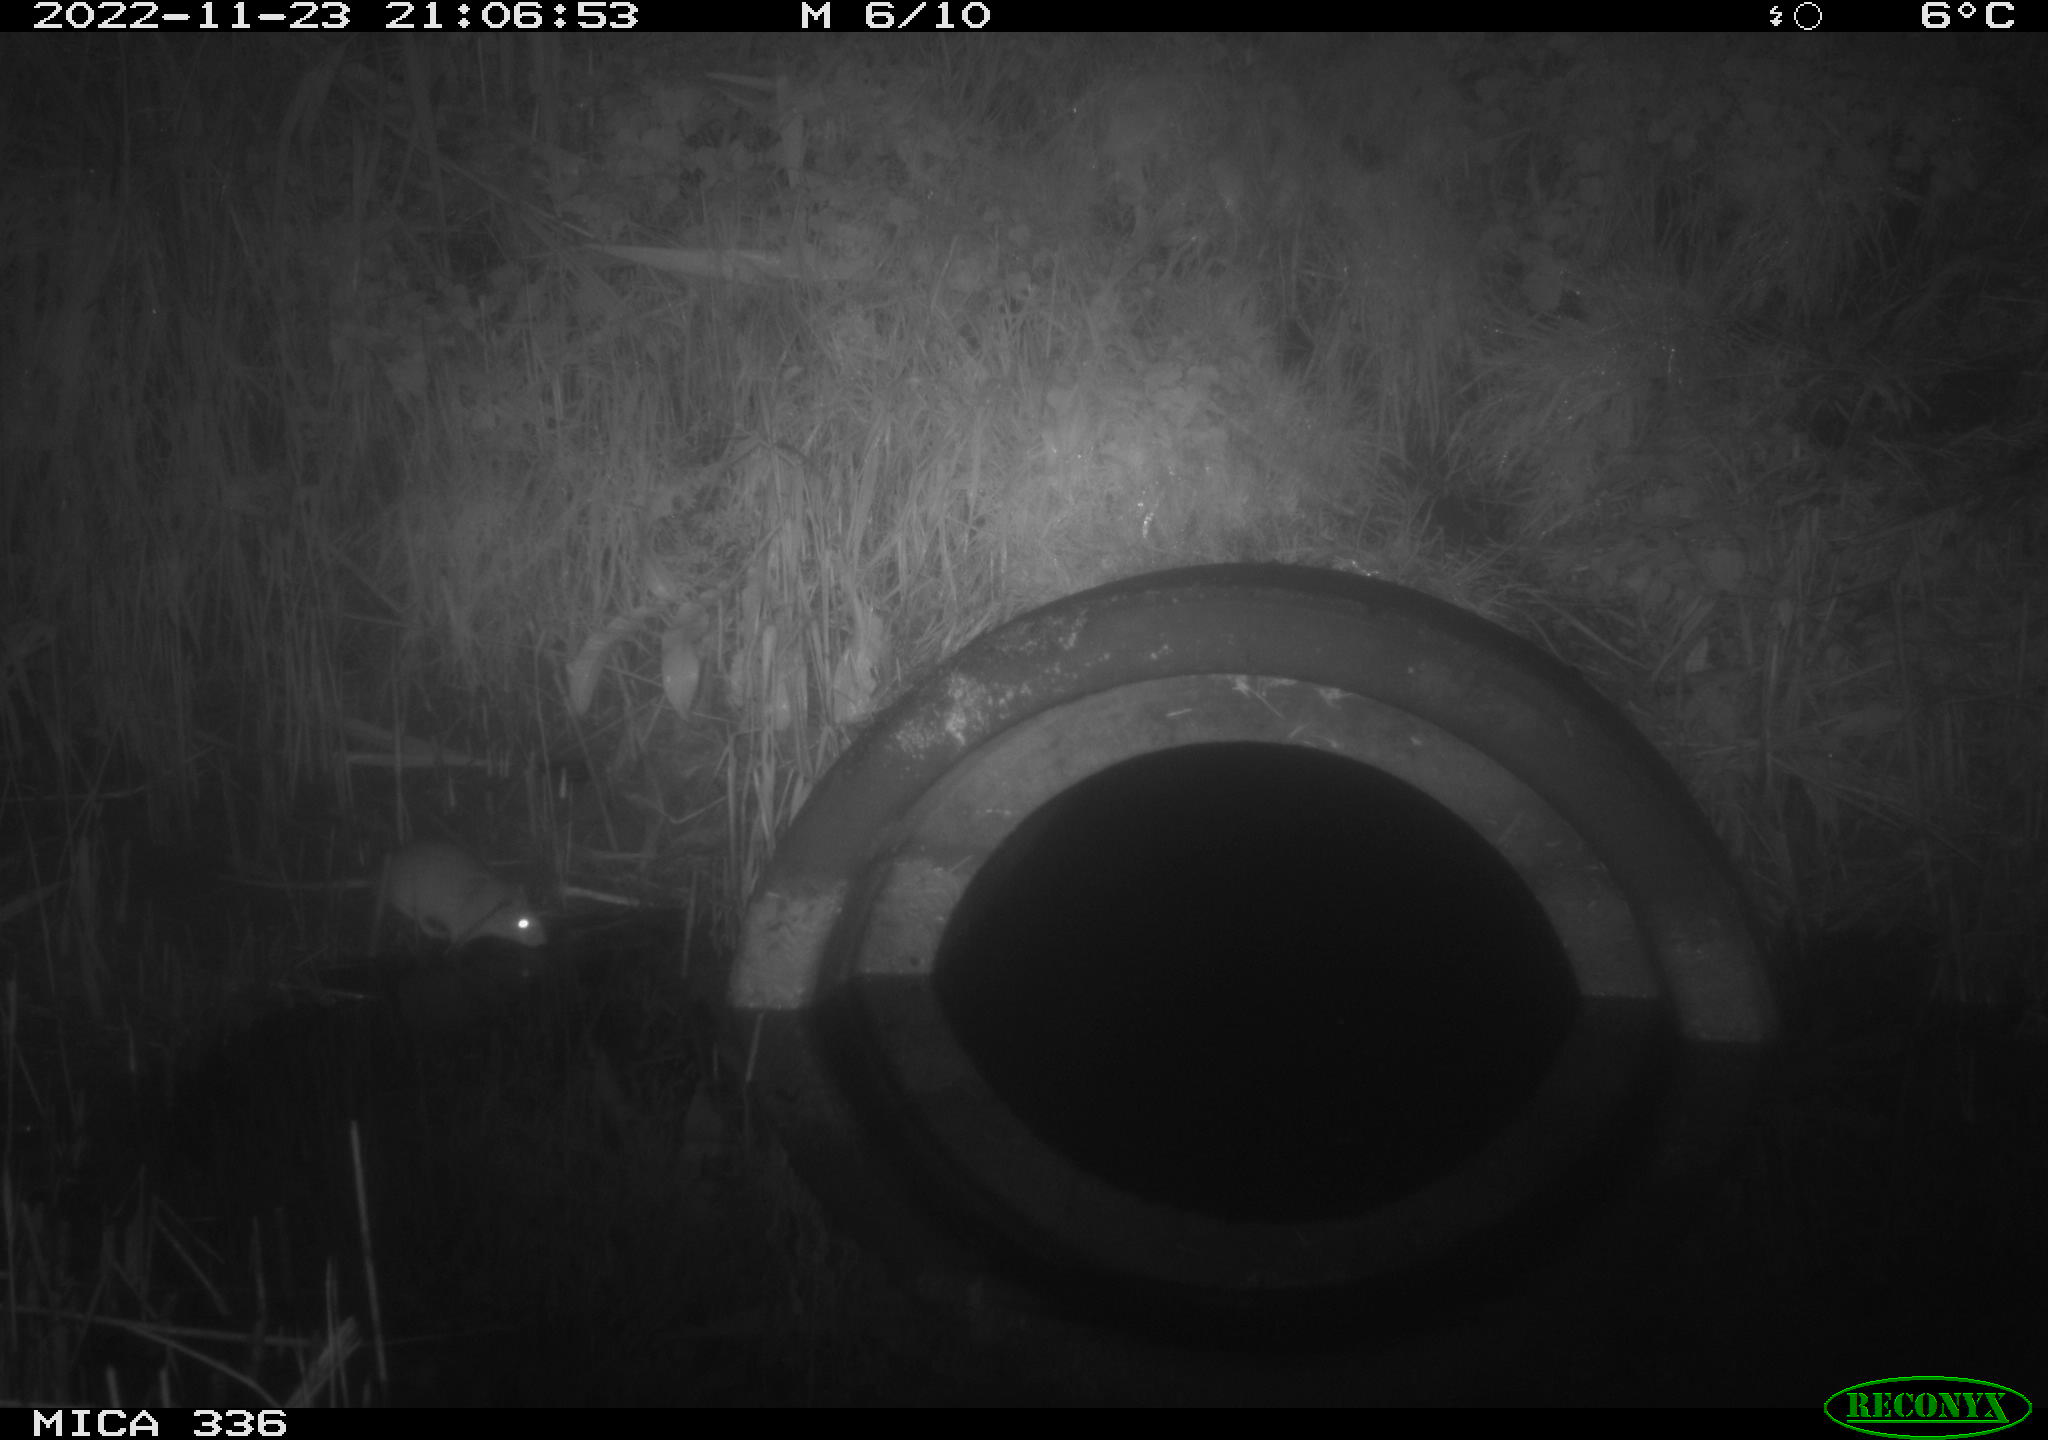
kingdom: Animalia
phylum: Chordata
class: Mammalia
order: Rodentia
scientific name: Rodentia
